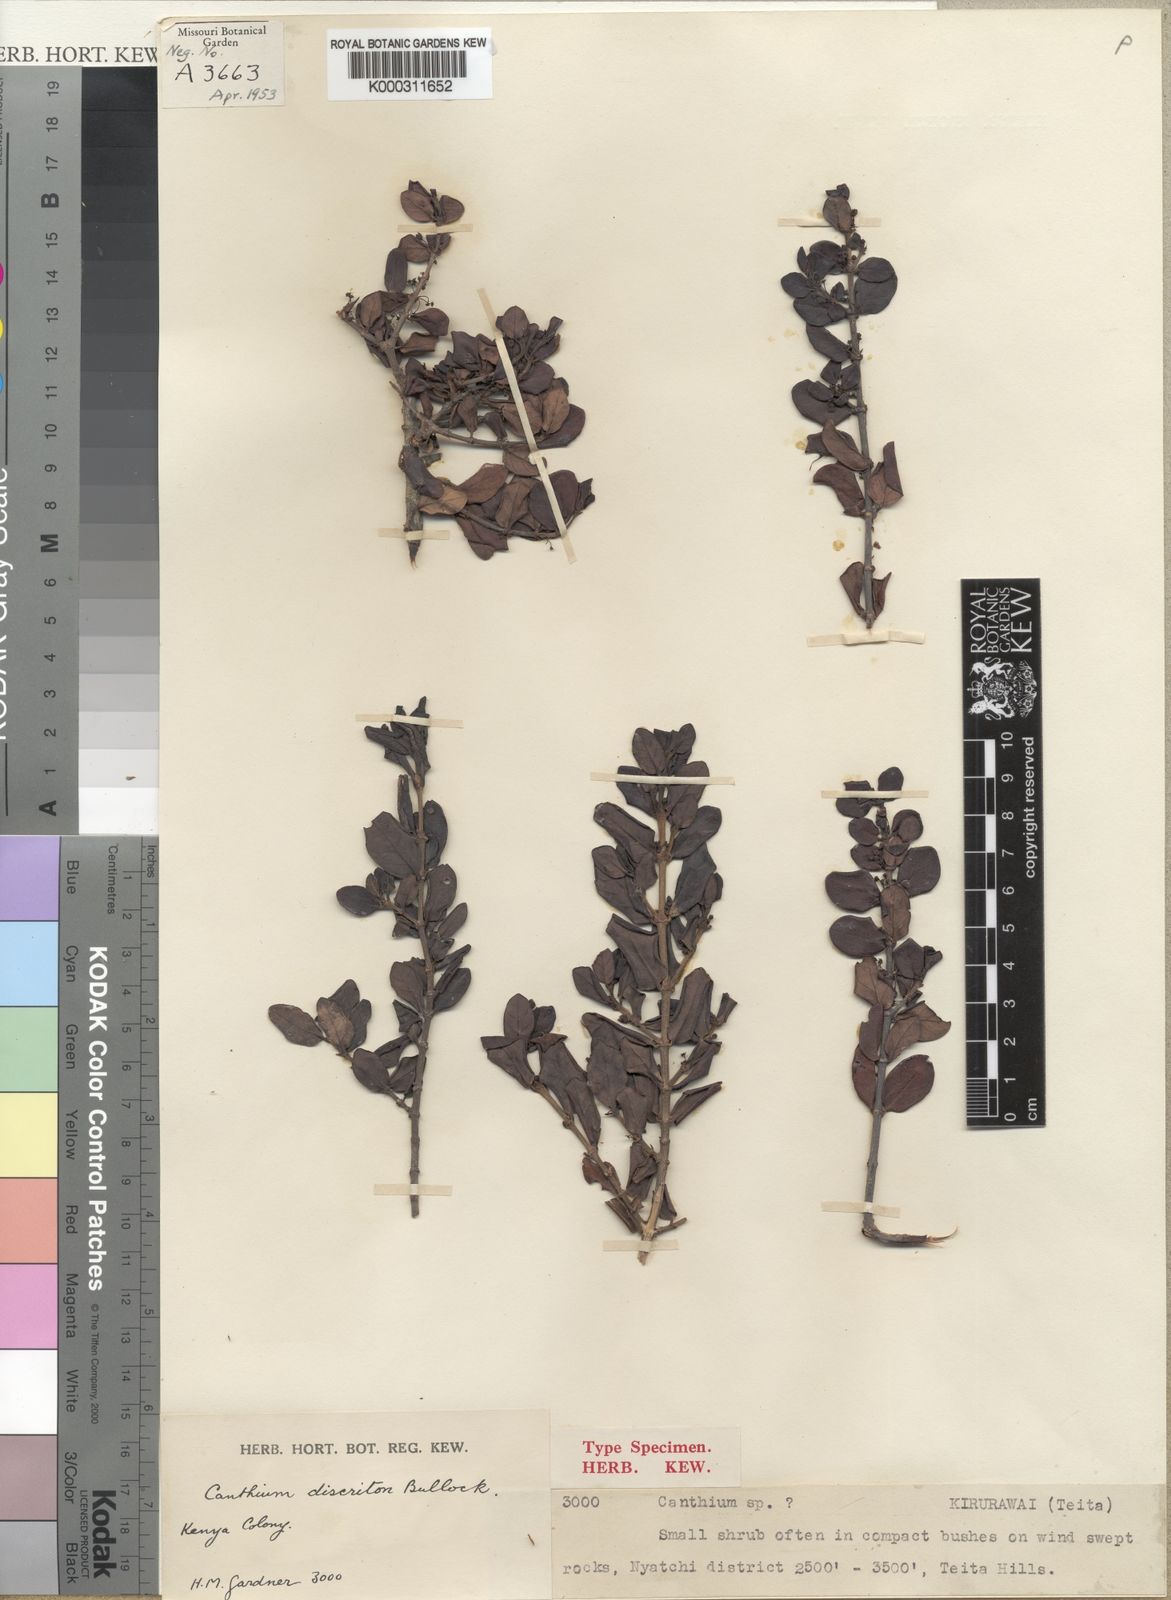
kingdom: Plantae
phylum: Tracheophyta
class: Magnoliopsida
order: Gentianales
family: Rubiaceae
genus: Bullockia
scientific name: Bullockia dyscritos
